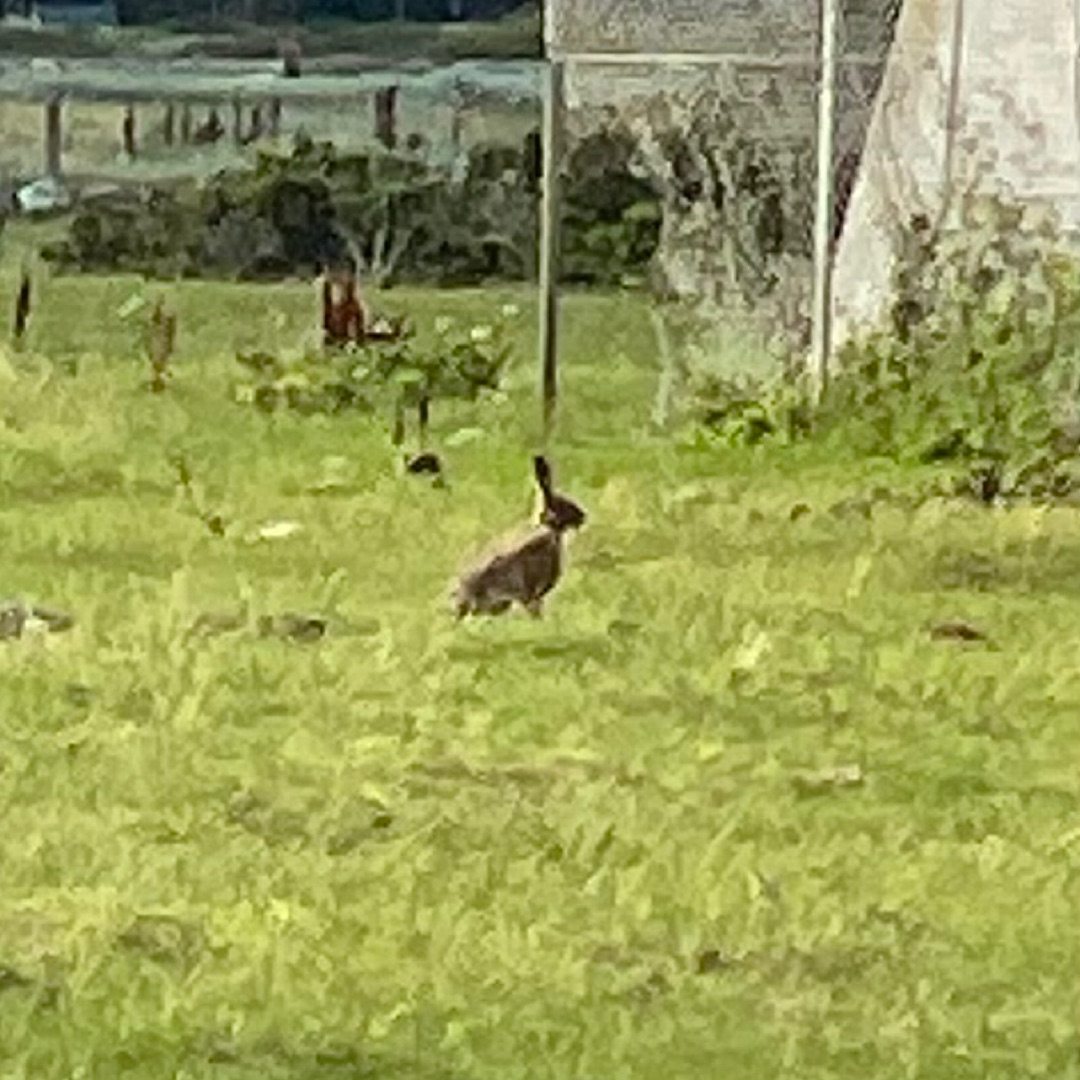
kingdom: Animalia
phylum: Chordata
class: Mammalia
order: Lagomorpha
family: Leporidae
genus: Lepus
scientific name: Lepus europaeus
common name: Hare
